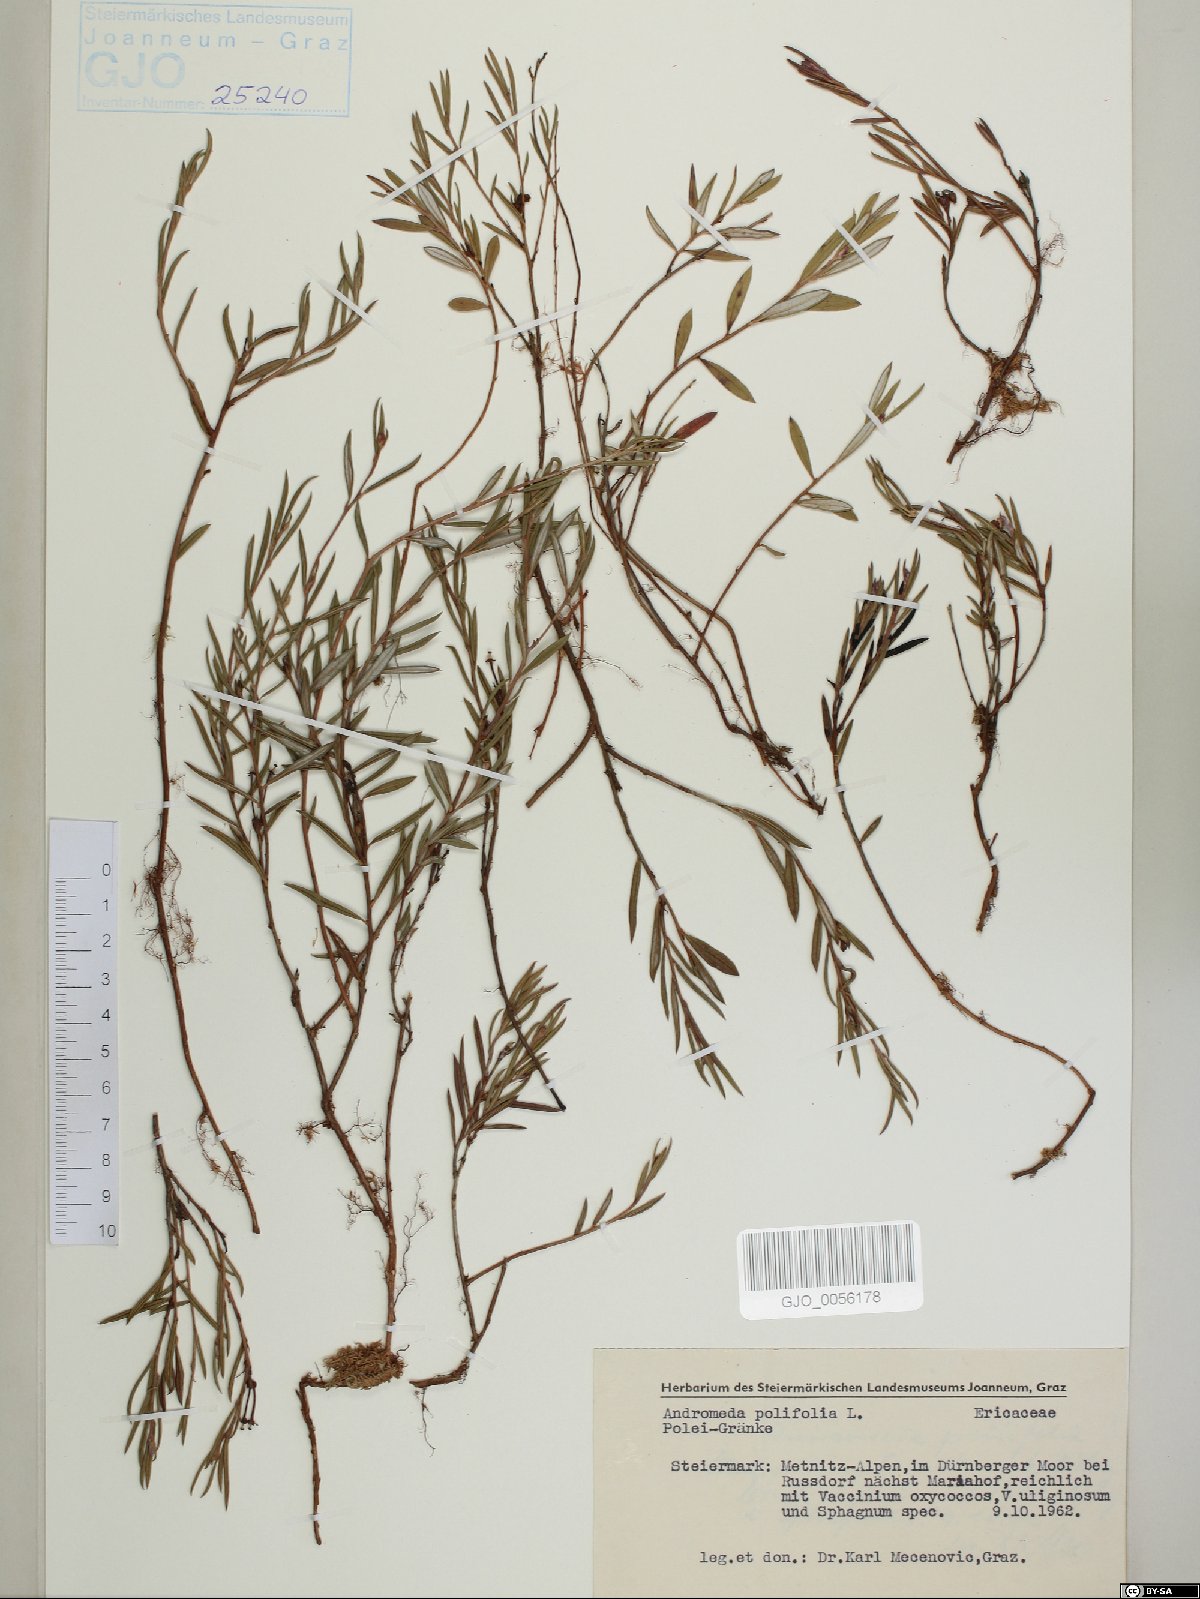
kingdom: Plantae
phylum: Tracheophyta
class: Magnoliopsida
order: Ericales
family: Ericaceae
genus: Andromeda
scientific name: Andromeda polifolia
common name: Bog-rosemary
